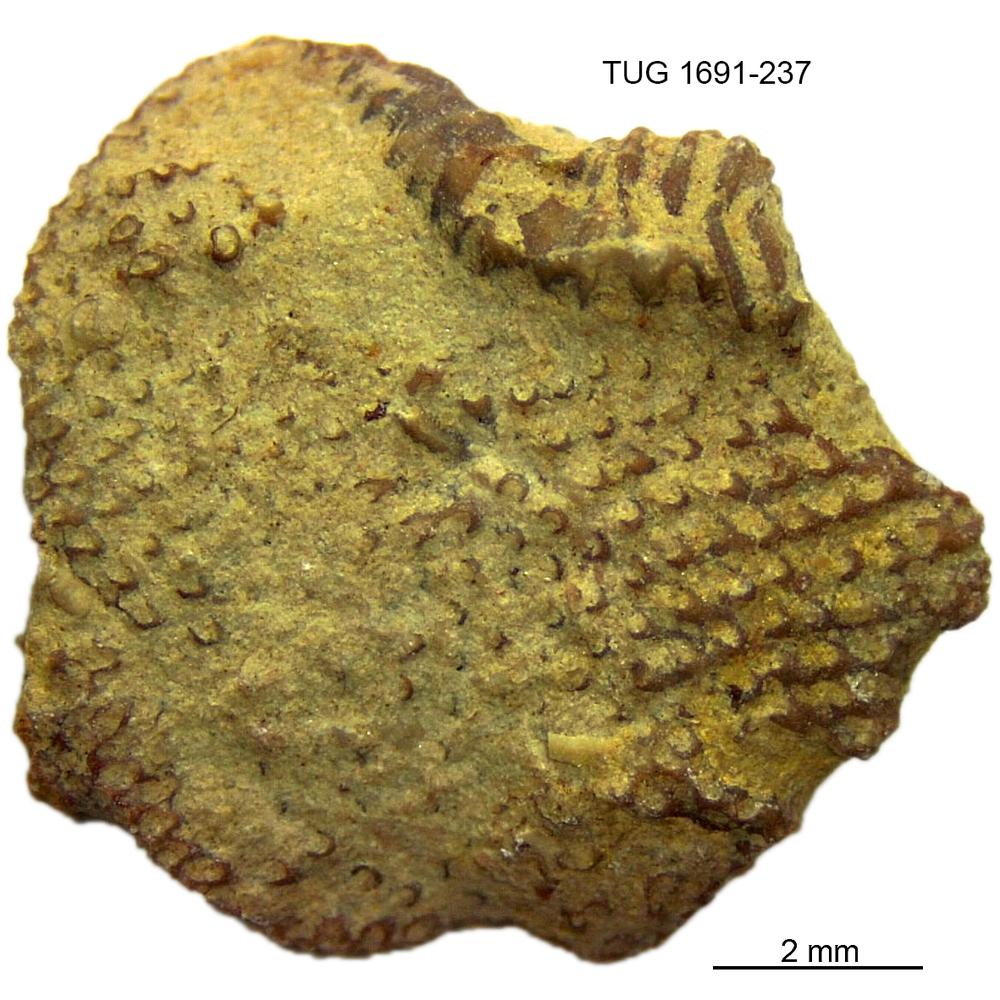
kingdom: Animalia
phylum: Bryozoa
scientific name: Bryozoa
